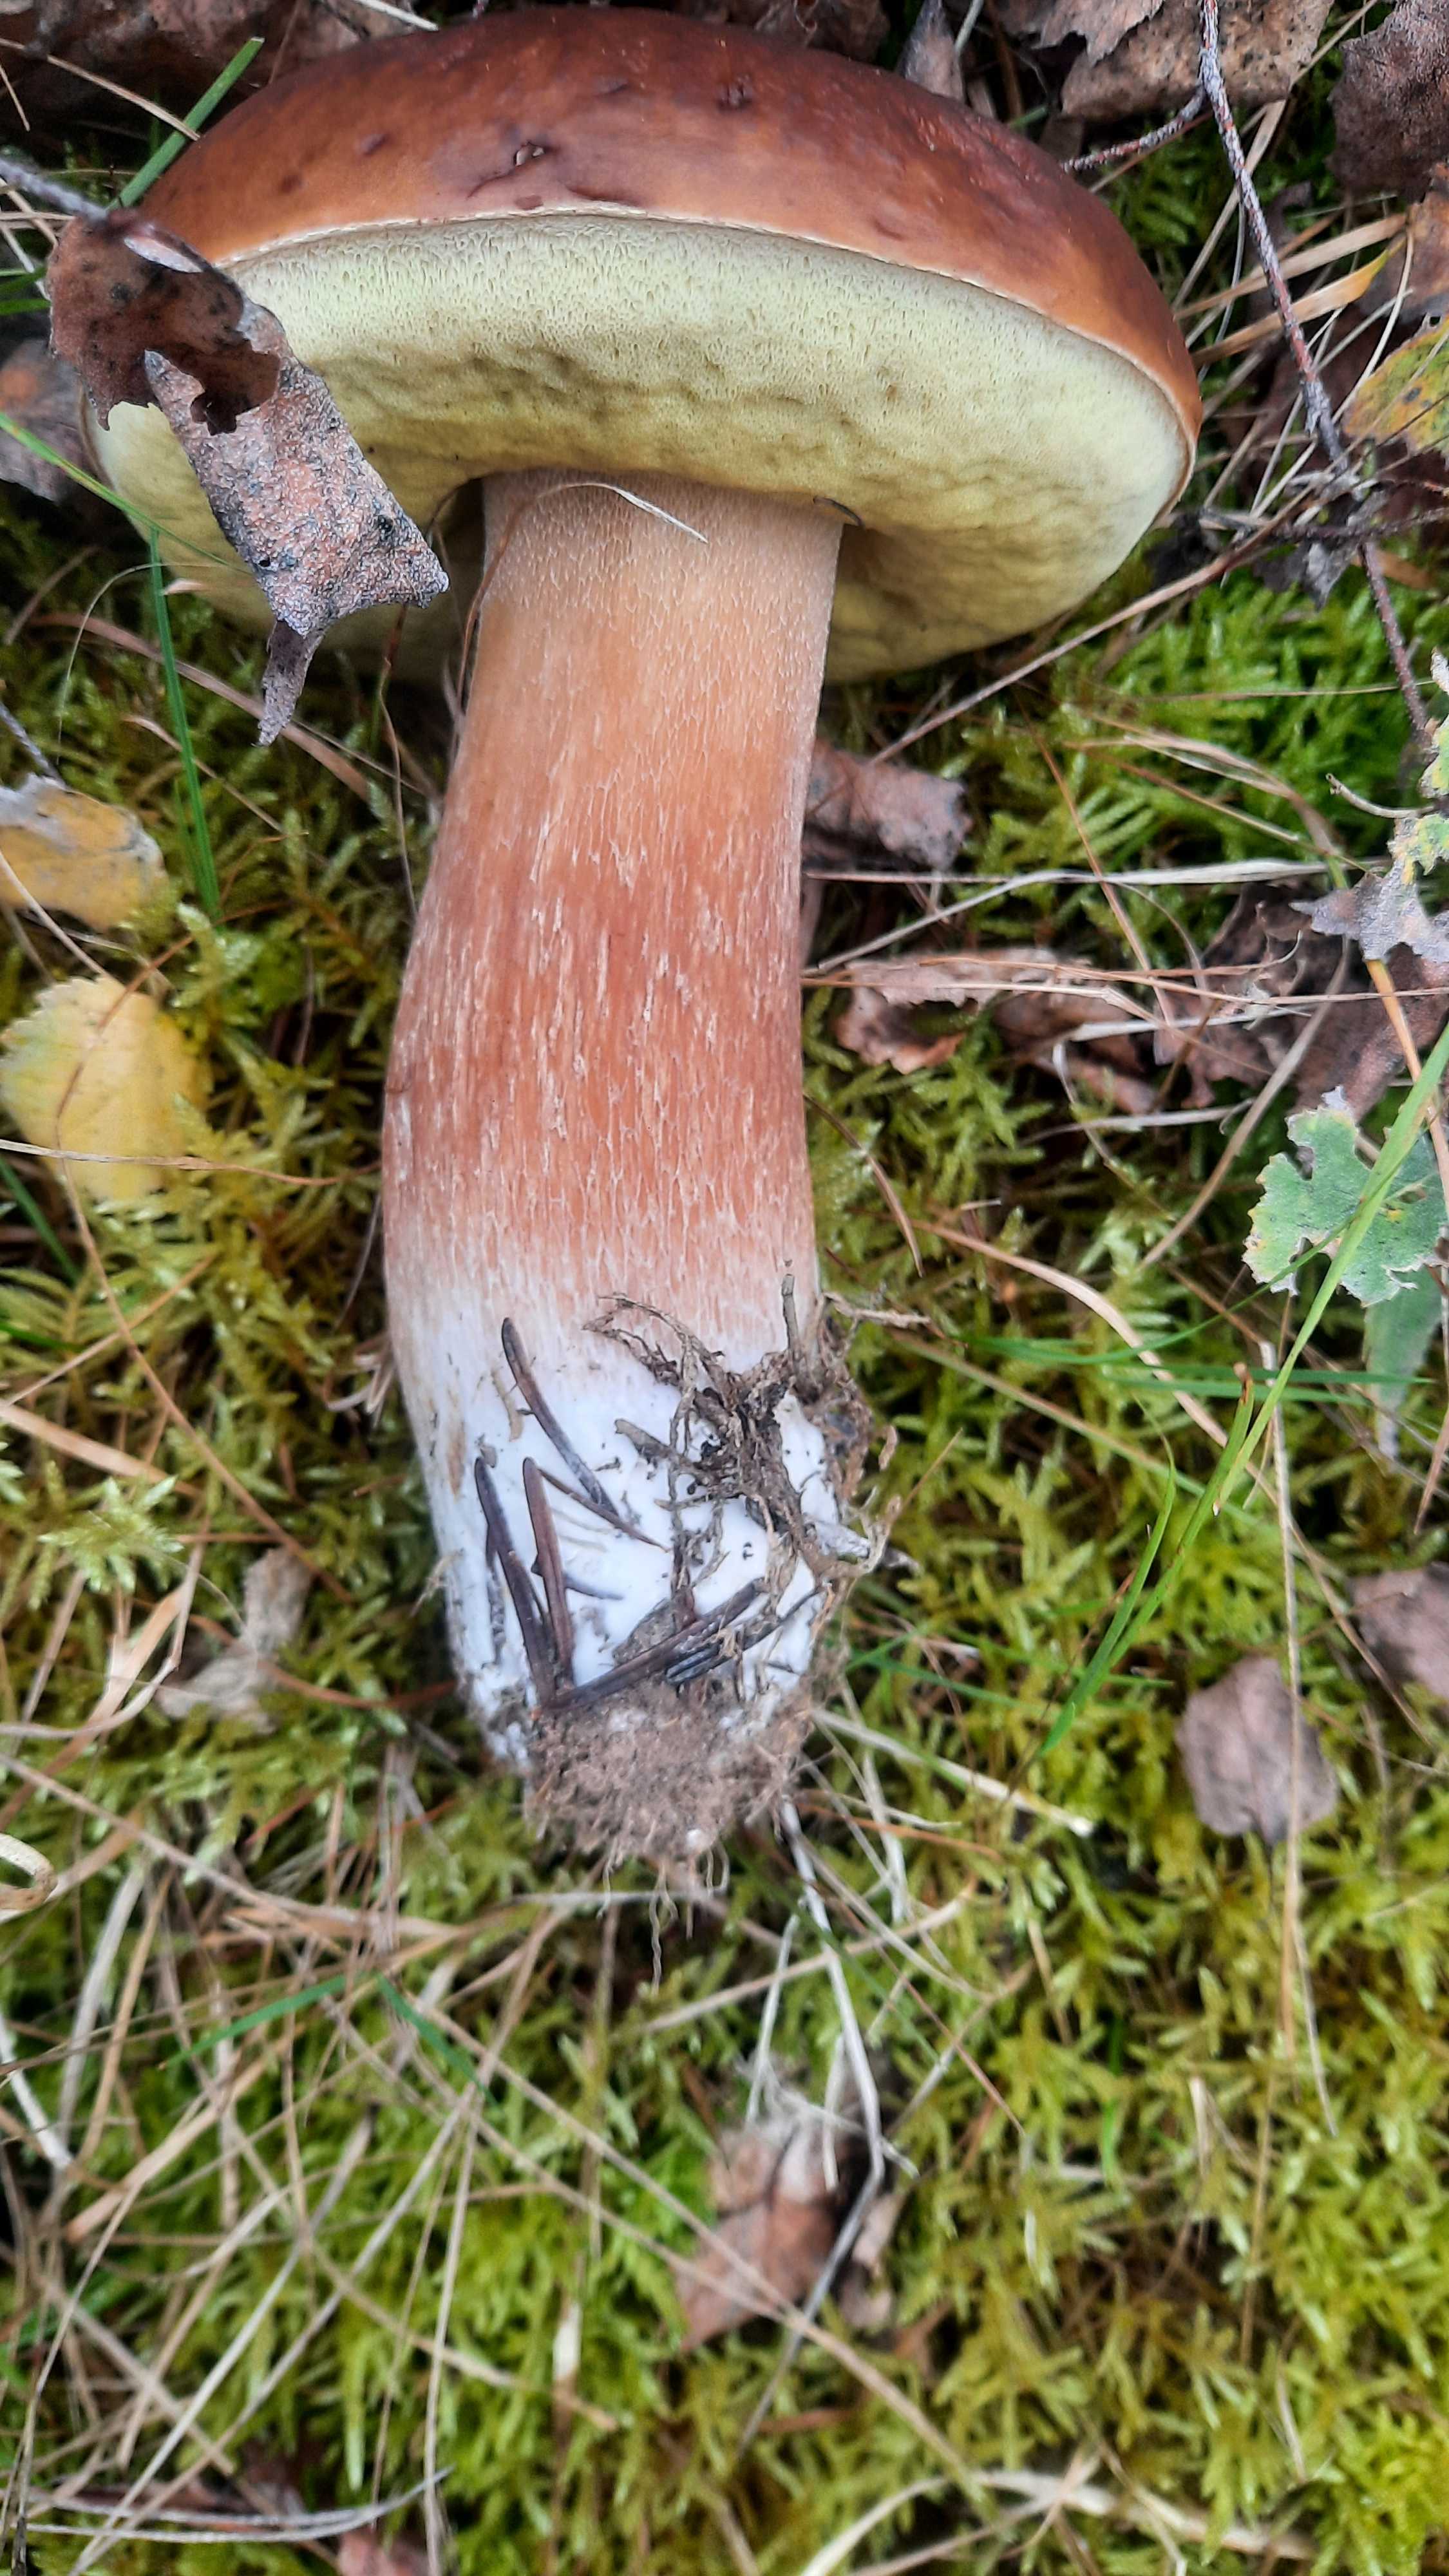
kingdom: Fungi
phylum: Basidiomycota
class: Agaricomycetes
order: Boletales
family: Boletaceae
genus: Boletus
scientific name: Boletus edulis
